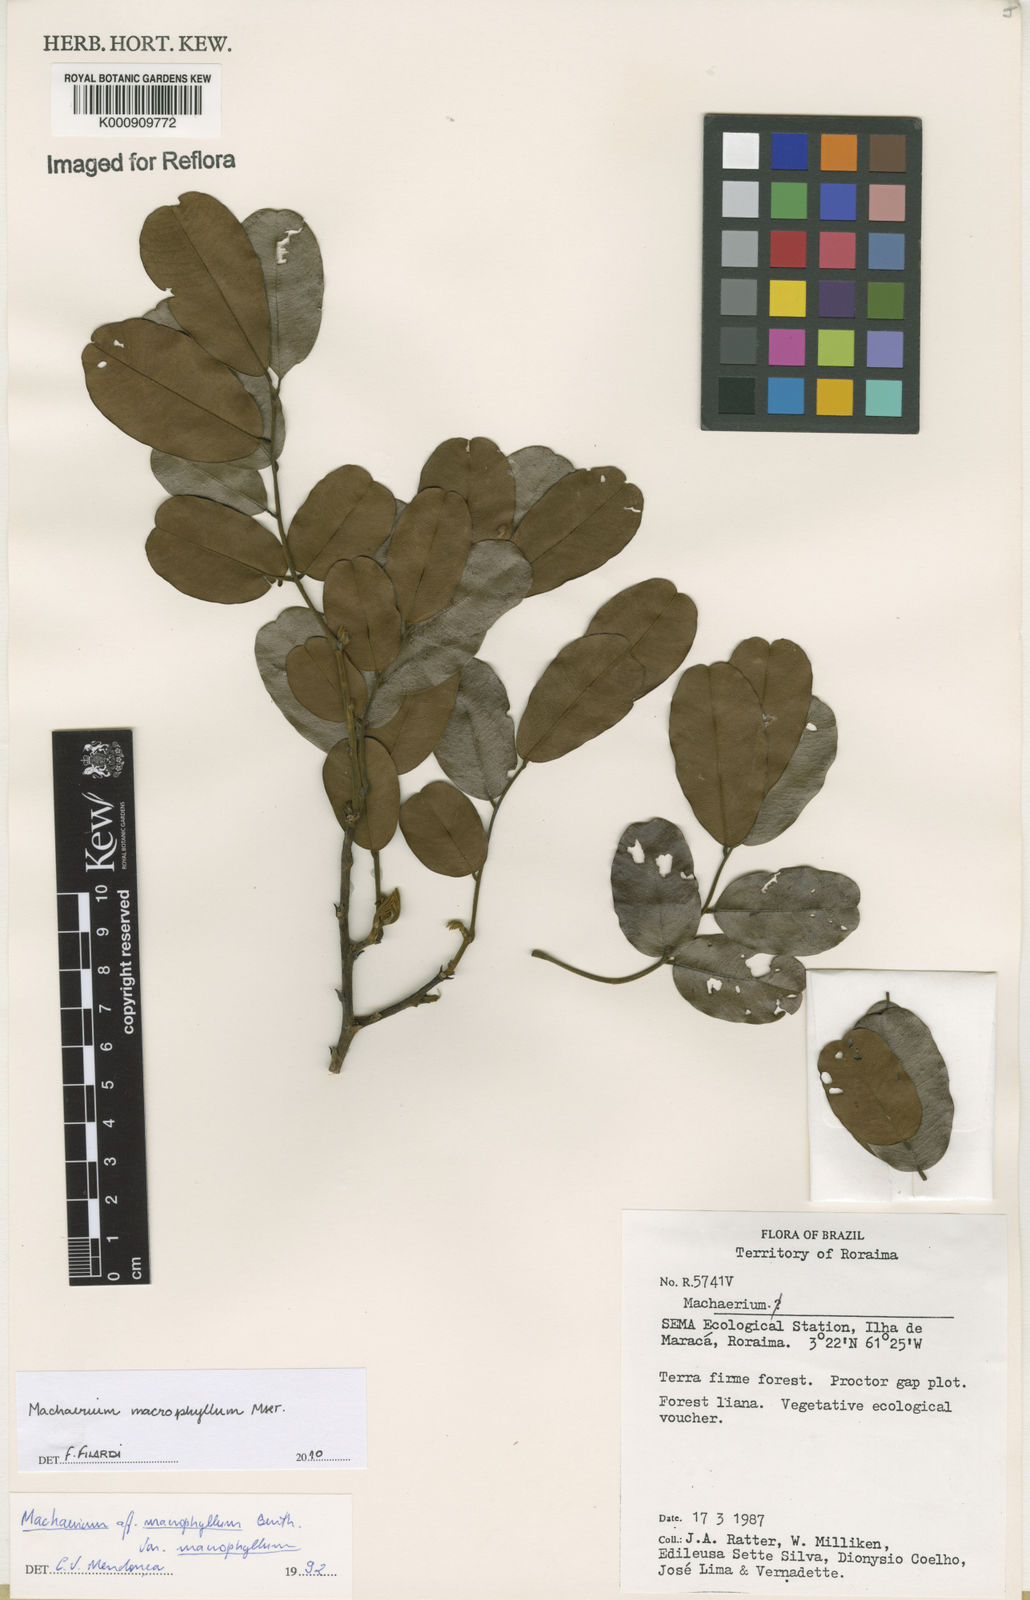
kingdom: Plantae
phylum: Tracheophyta
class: Magnoliopsida
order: Fabales
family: Fabaceae
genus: Machaerium
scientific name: Machaerium macrophyllum
